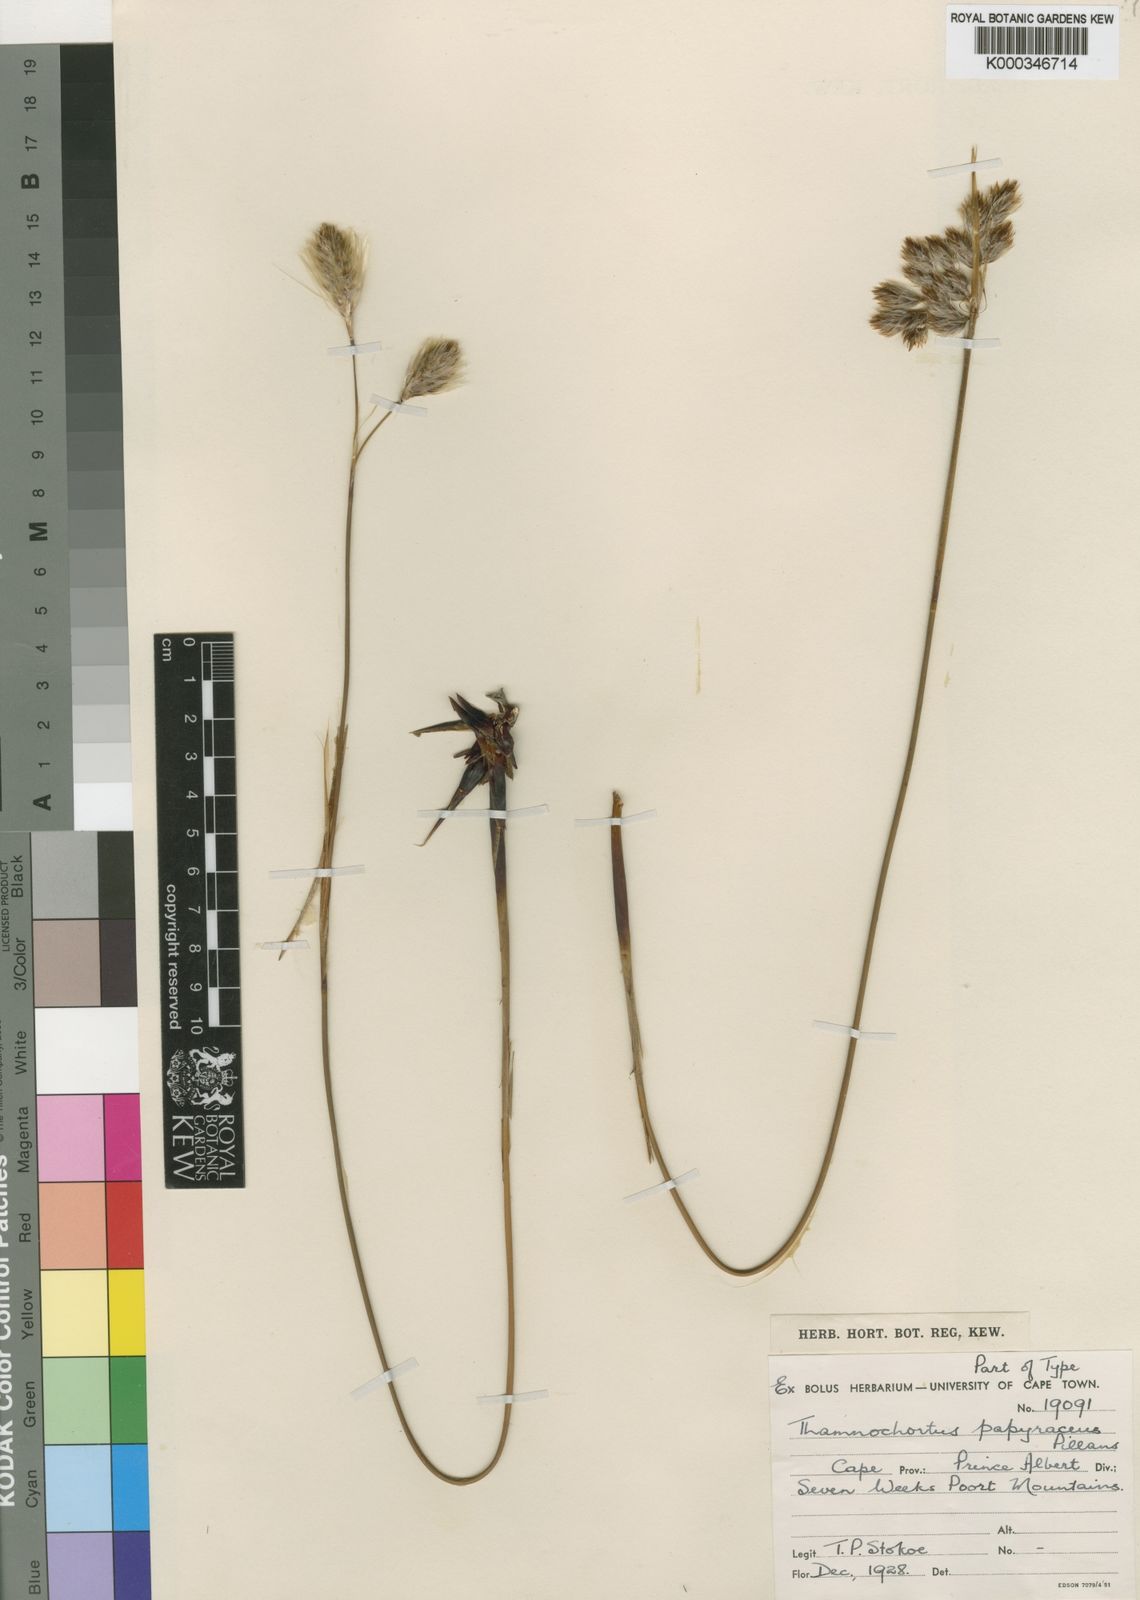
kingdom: Plantae
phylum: Tracheophyta
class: Liliopsida
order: Poales
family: Restionaceae
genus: Thamnochortus
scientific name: Thamnochortus papyraceus
